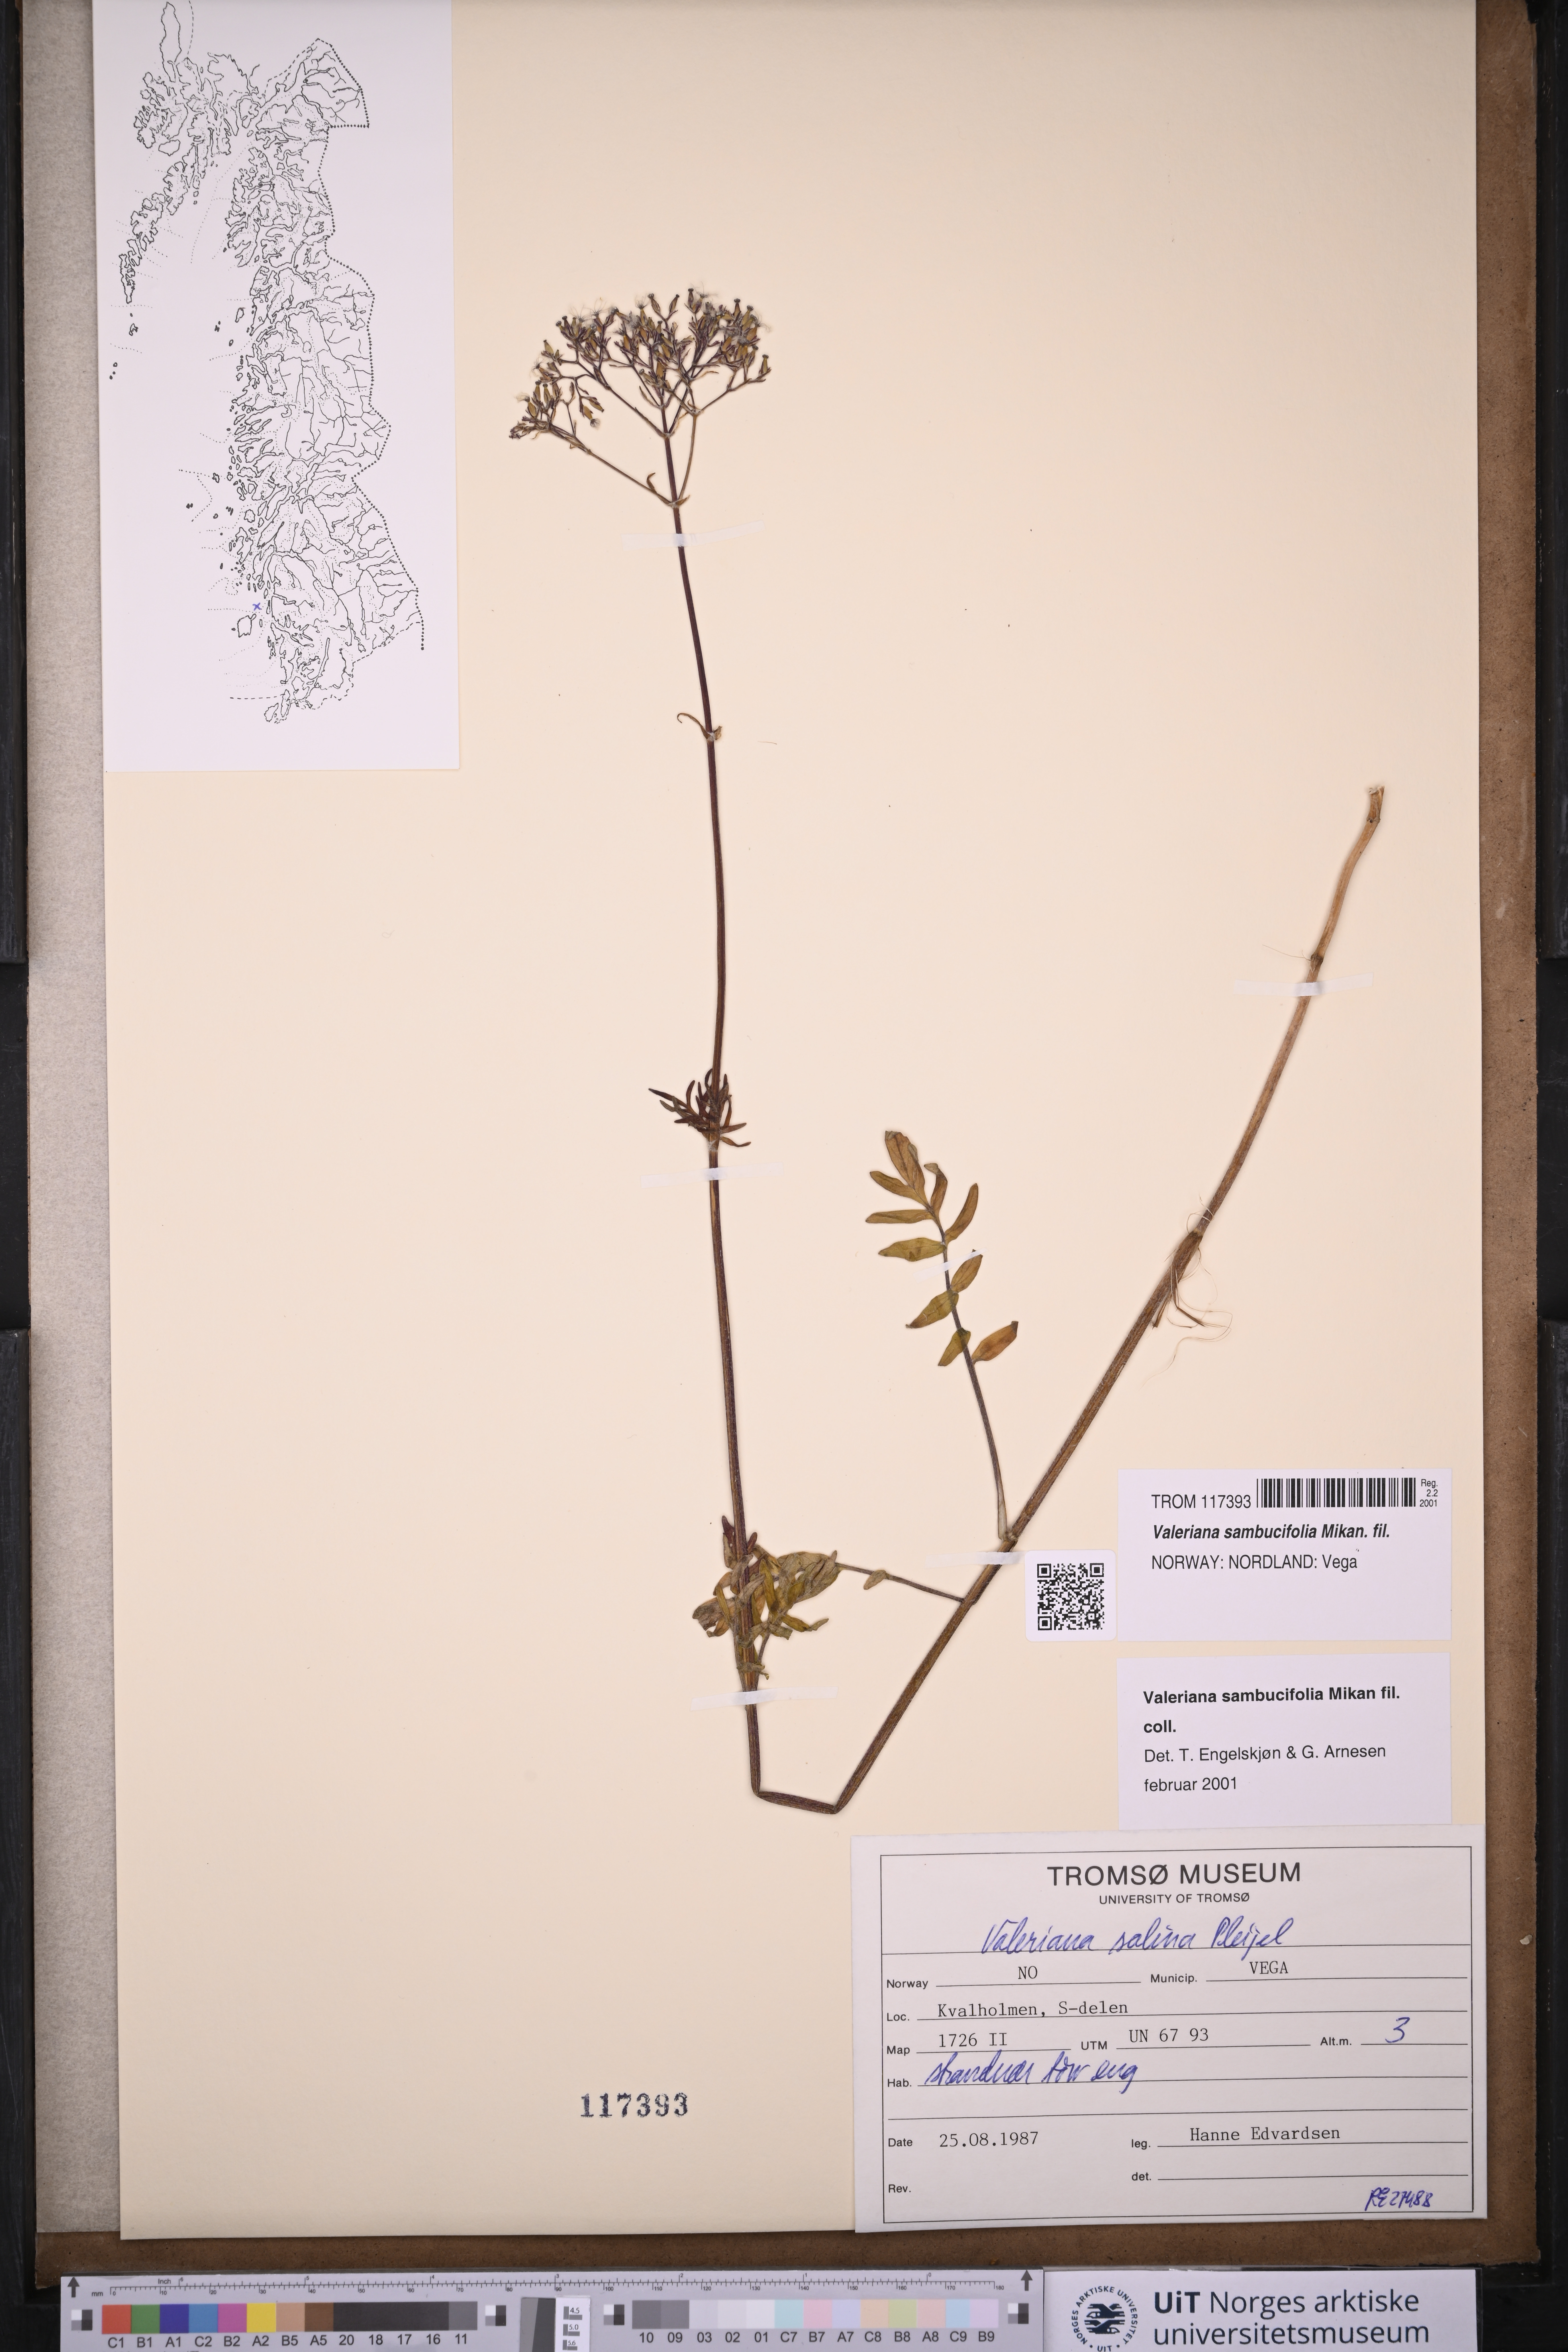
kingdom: Plantae
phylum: Tracheophyta
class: Magnoliopsida
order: Dipsacales
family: Caprifoliaceae
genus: Valeriana
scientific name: Valeriana excelsa
